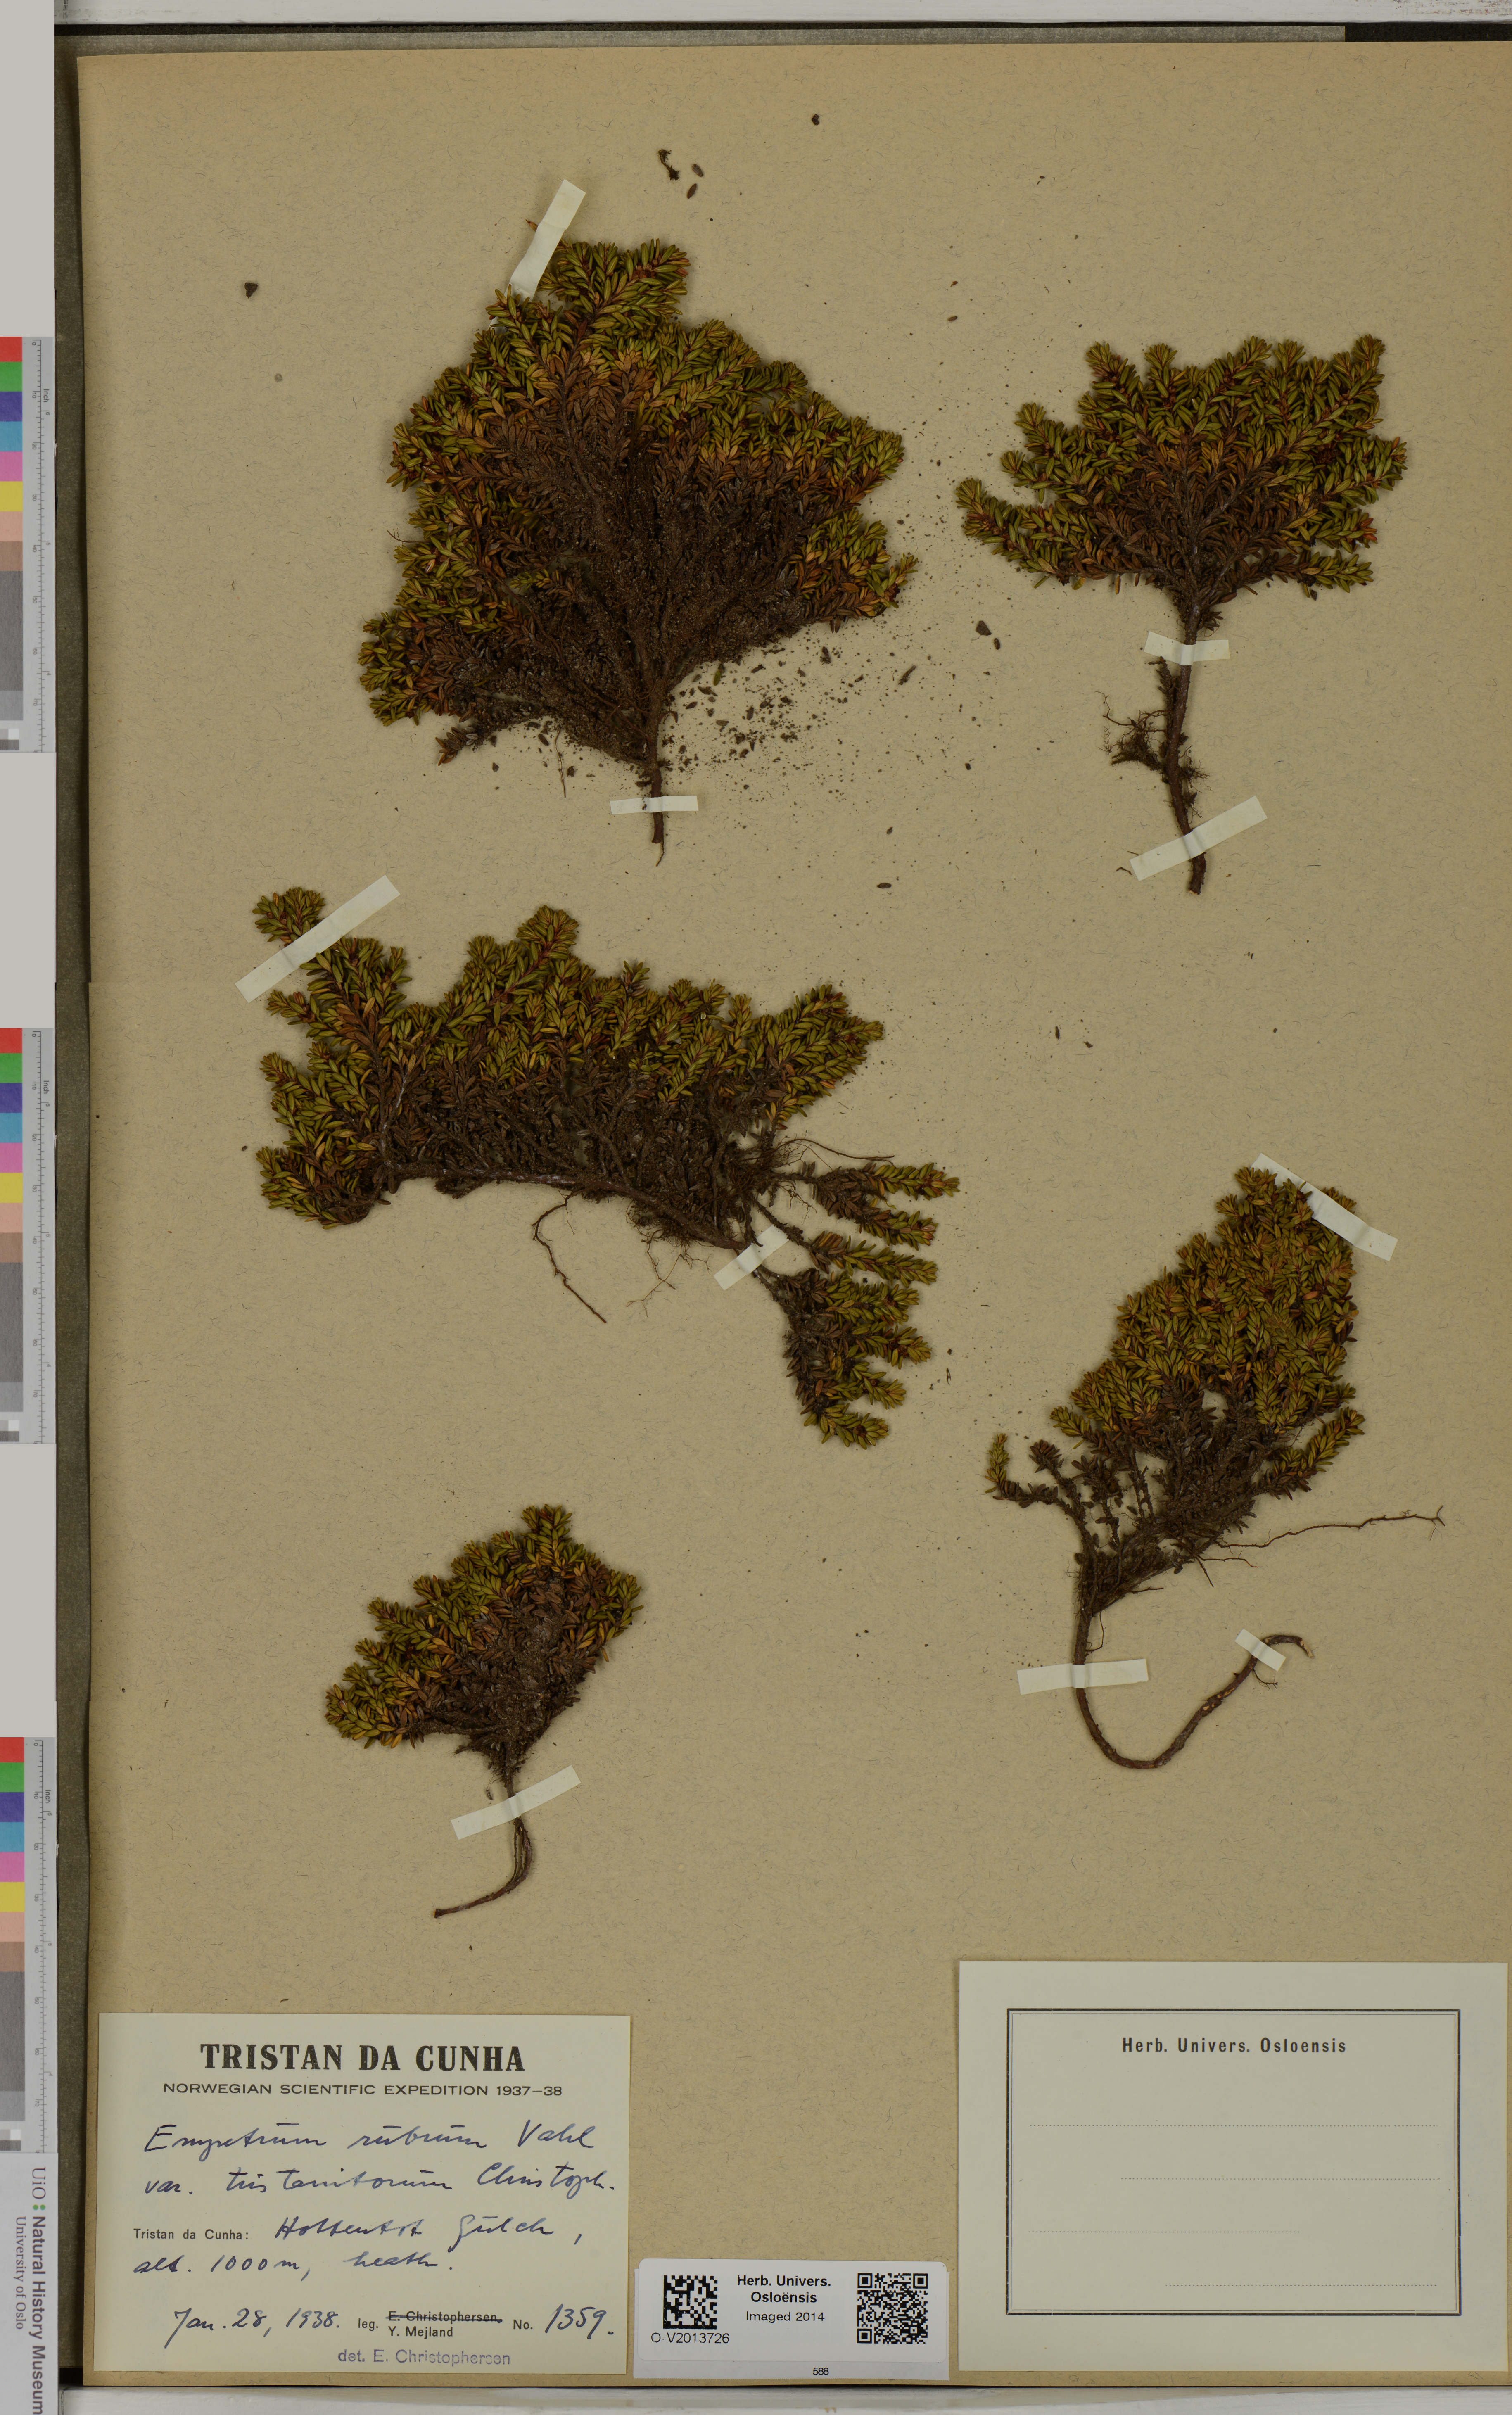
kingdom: Plantae
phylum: Tracheophyta
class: Magnoliopsida
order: Ericales
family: Ericaceae
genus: Empetrum
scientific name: Empetrum rubrum
